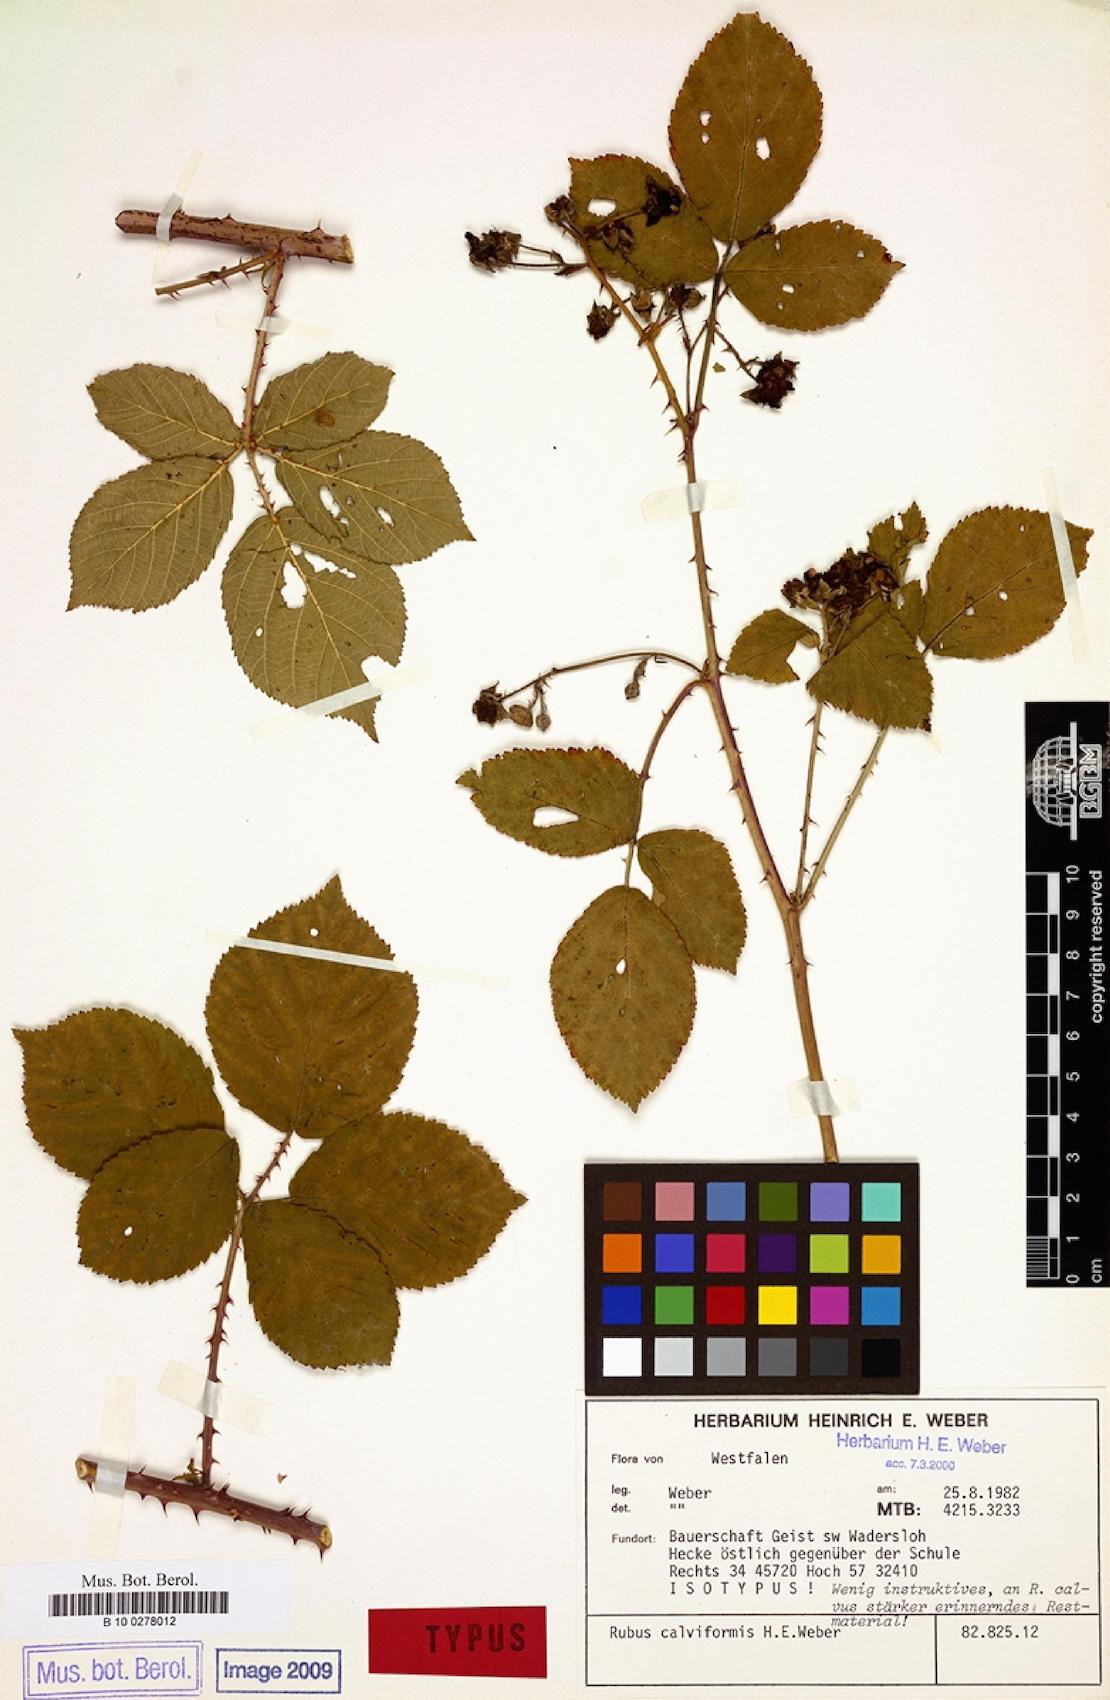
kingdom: Plantae
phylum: Tracheophyta
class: Magnoliopsida
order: Rosales
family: Rosaceae
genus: Rubus
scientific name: Rubus calviformis
